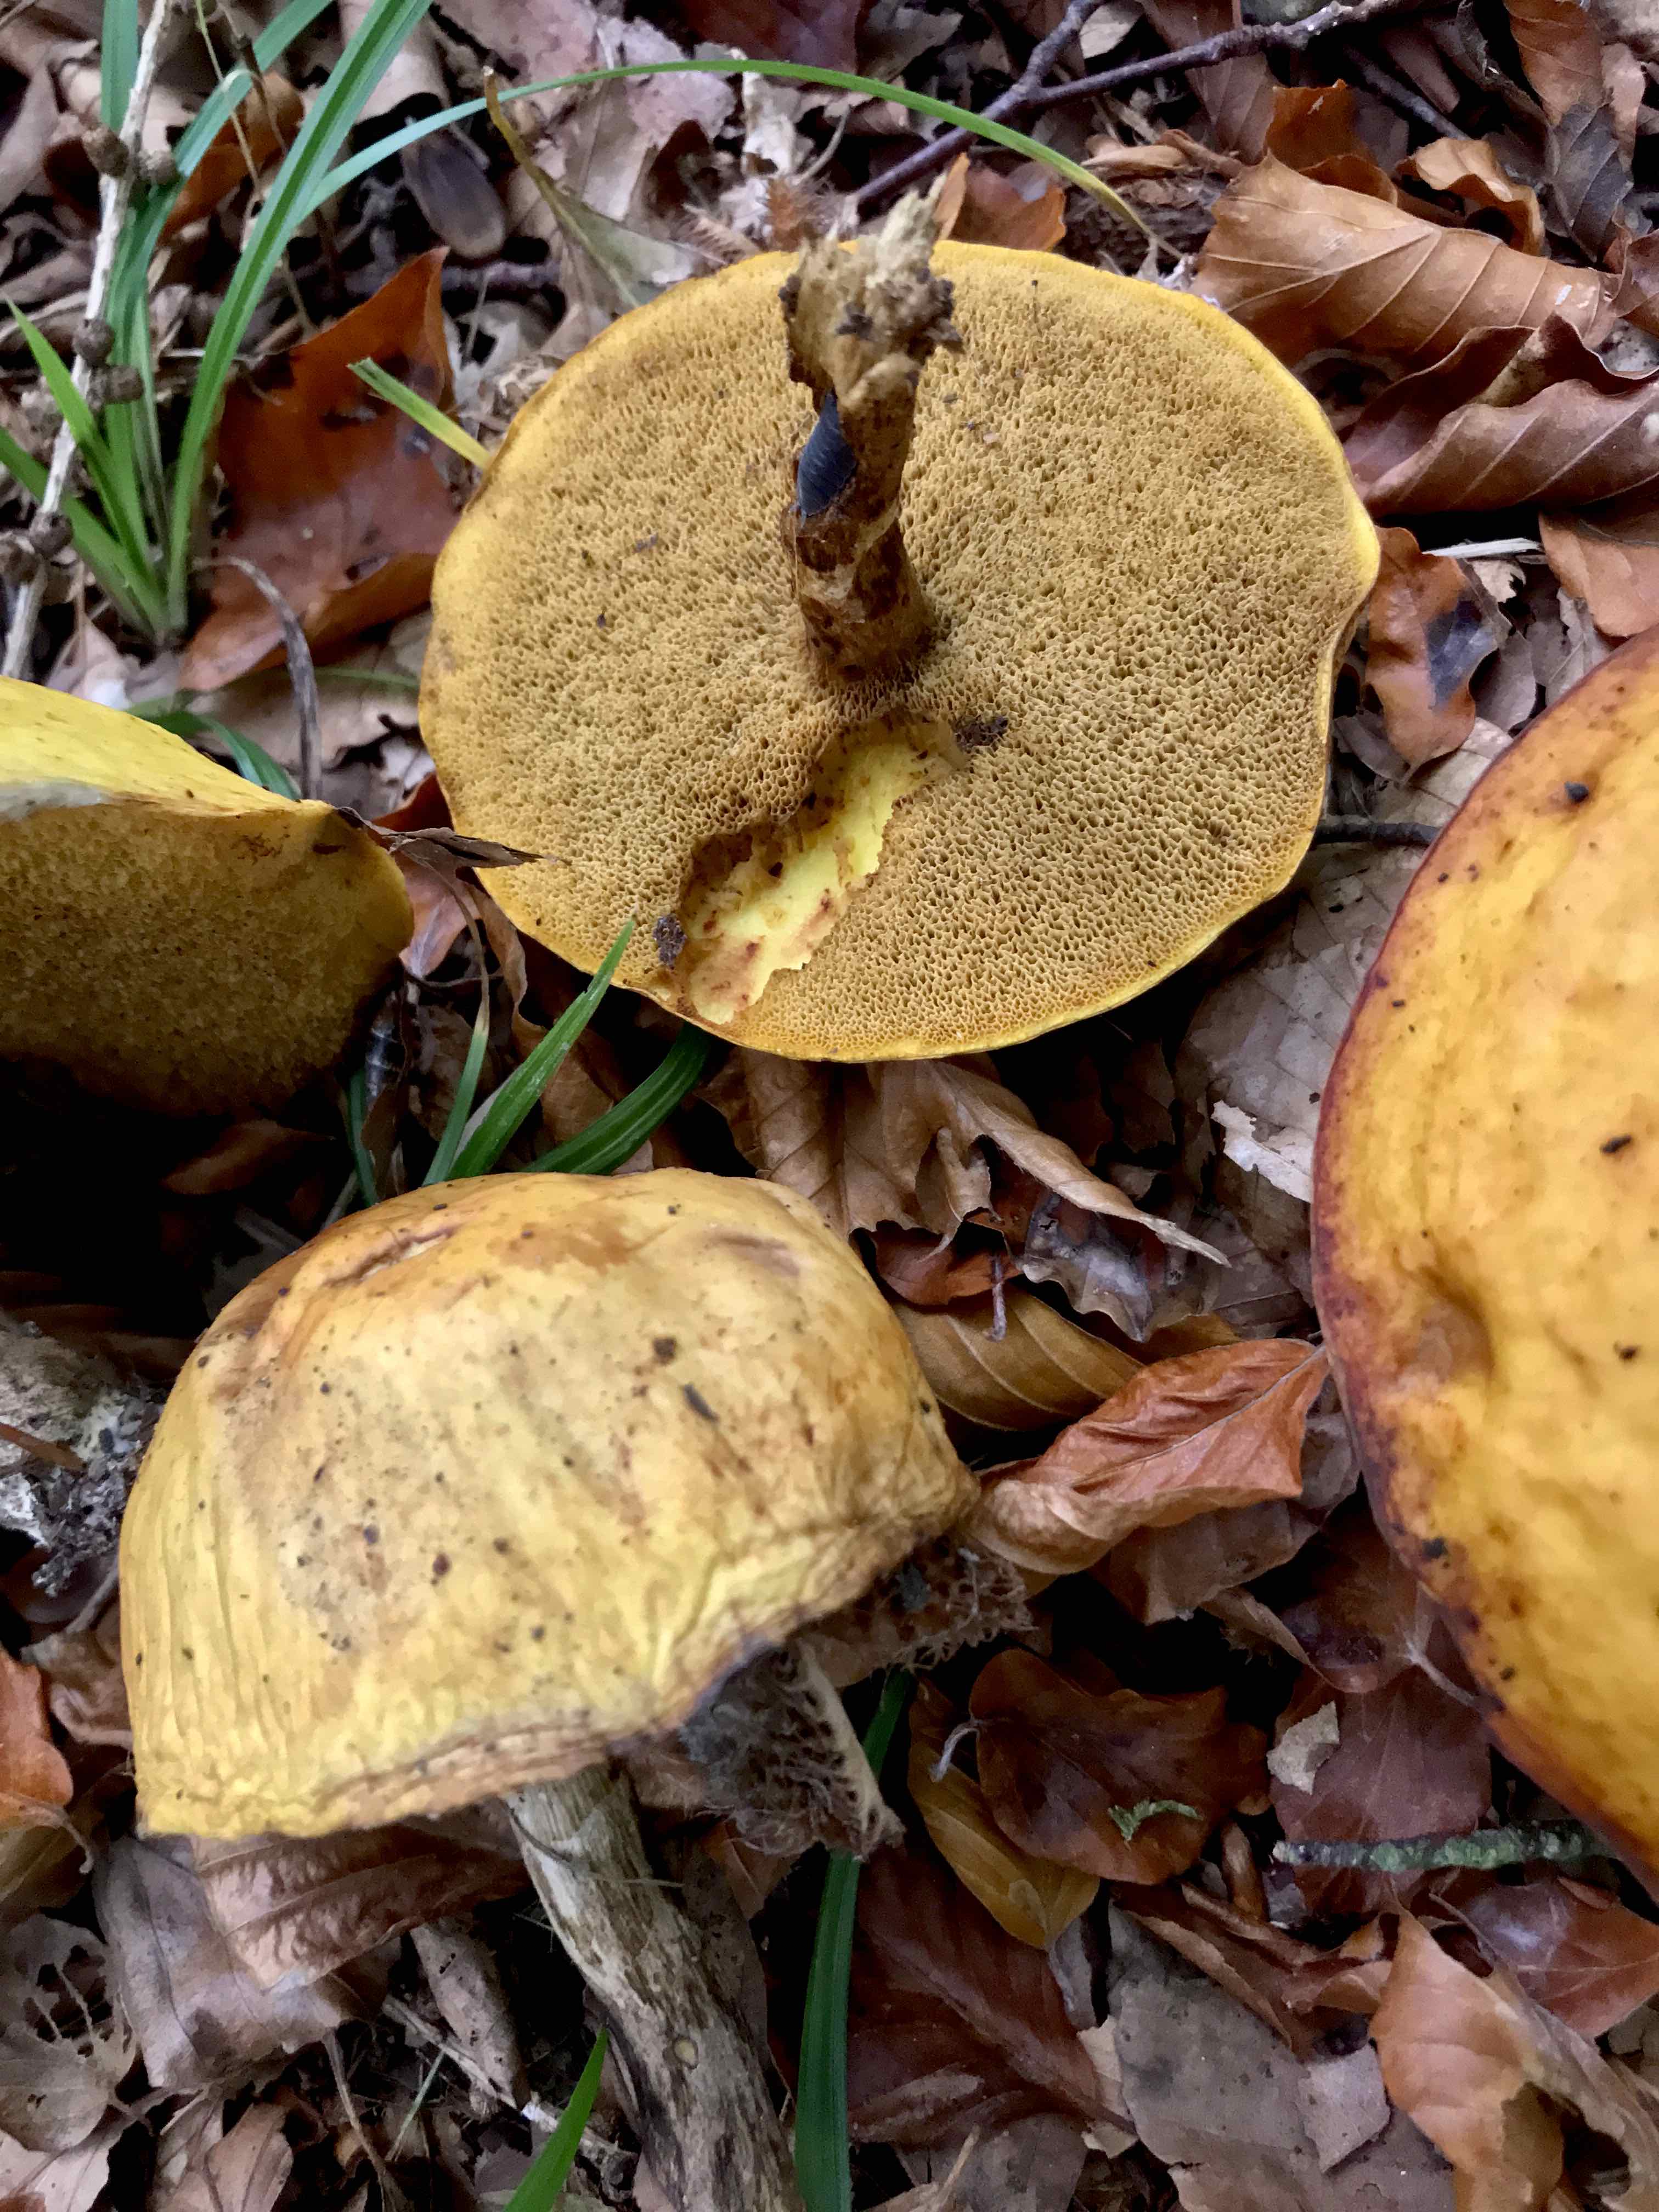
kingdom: Fungi
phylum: Basidiomycota
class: Agaricomycetes
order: Boletales
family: Suillaceae
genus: Suillus
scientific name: Suillus grevillei
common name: lærke-slimrørhat
